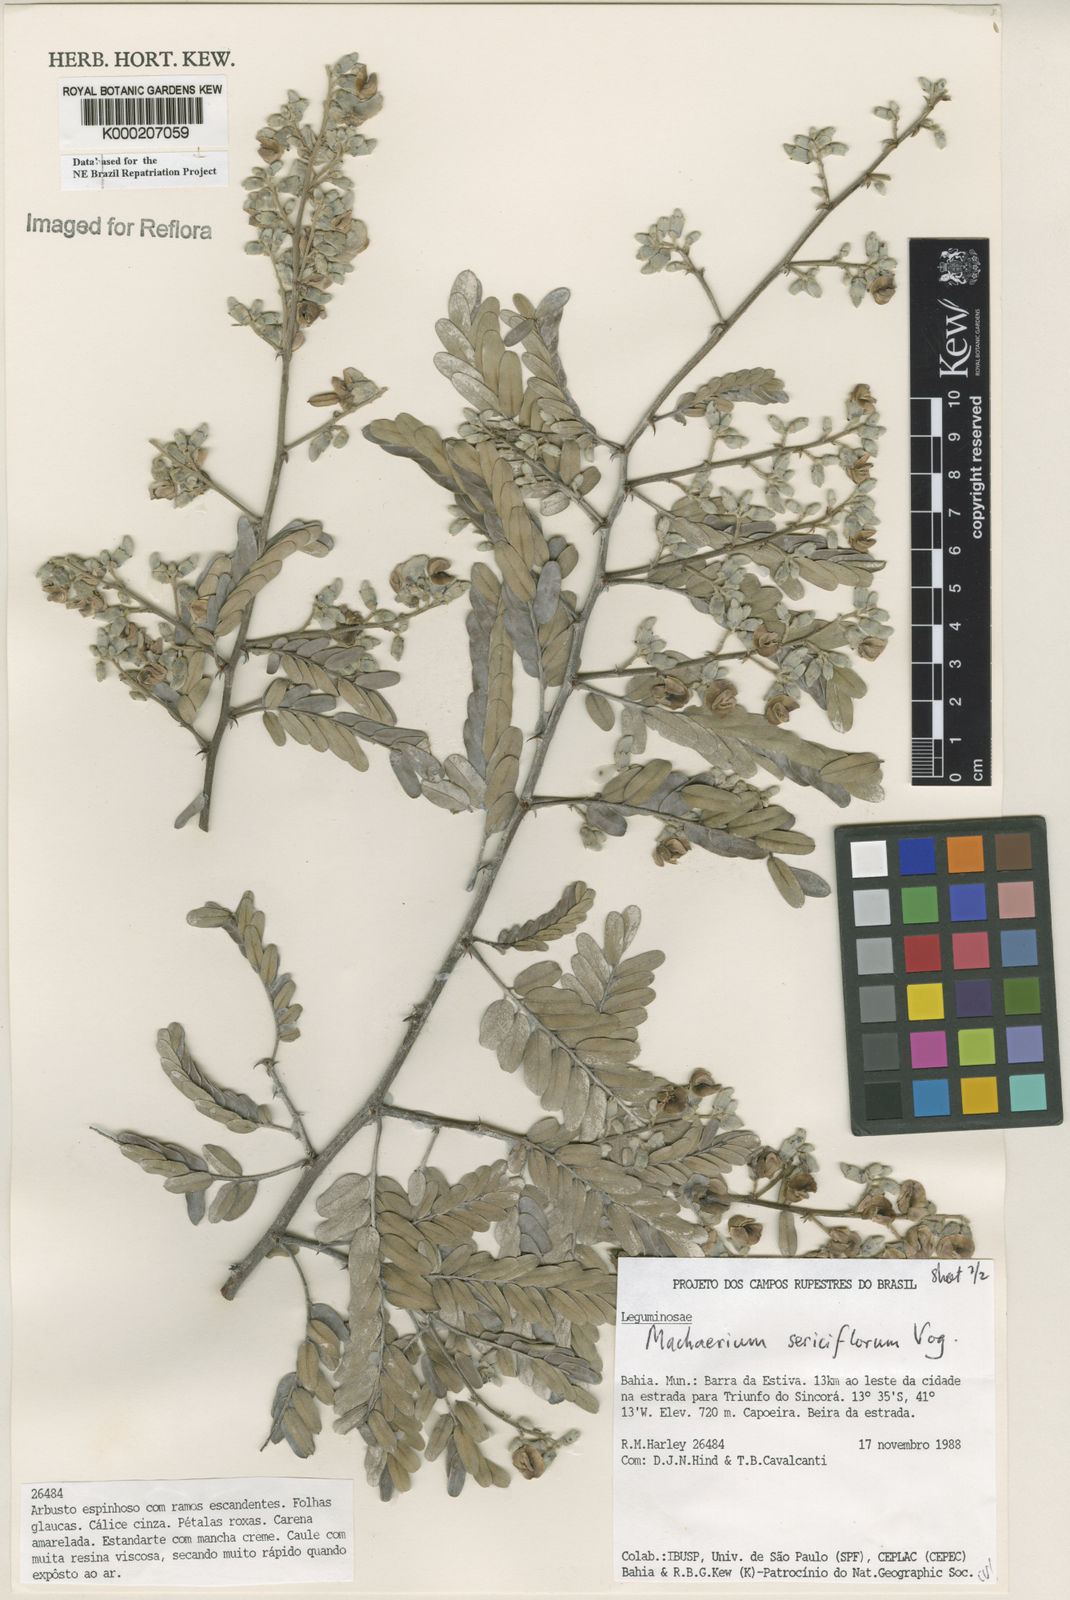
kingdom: Plantae
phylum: Tracheophyta
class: Magnoliopsida
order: Fabales
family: Fabaceae
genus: Machaerium
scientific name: Machaerium
